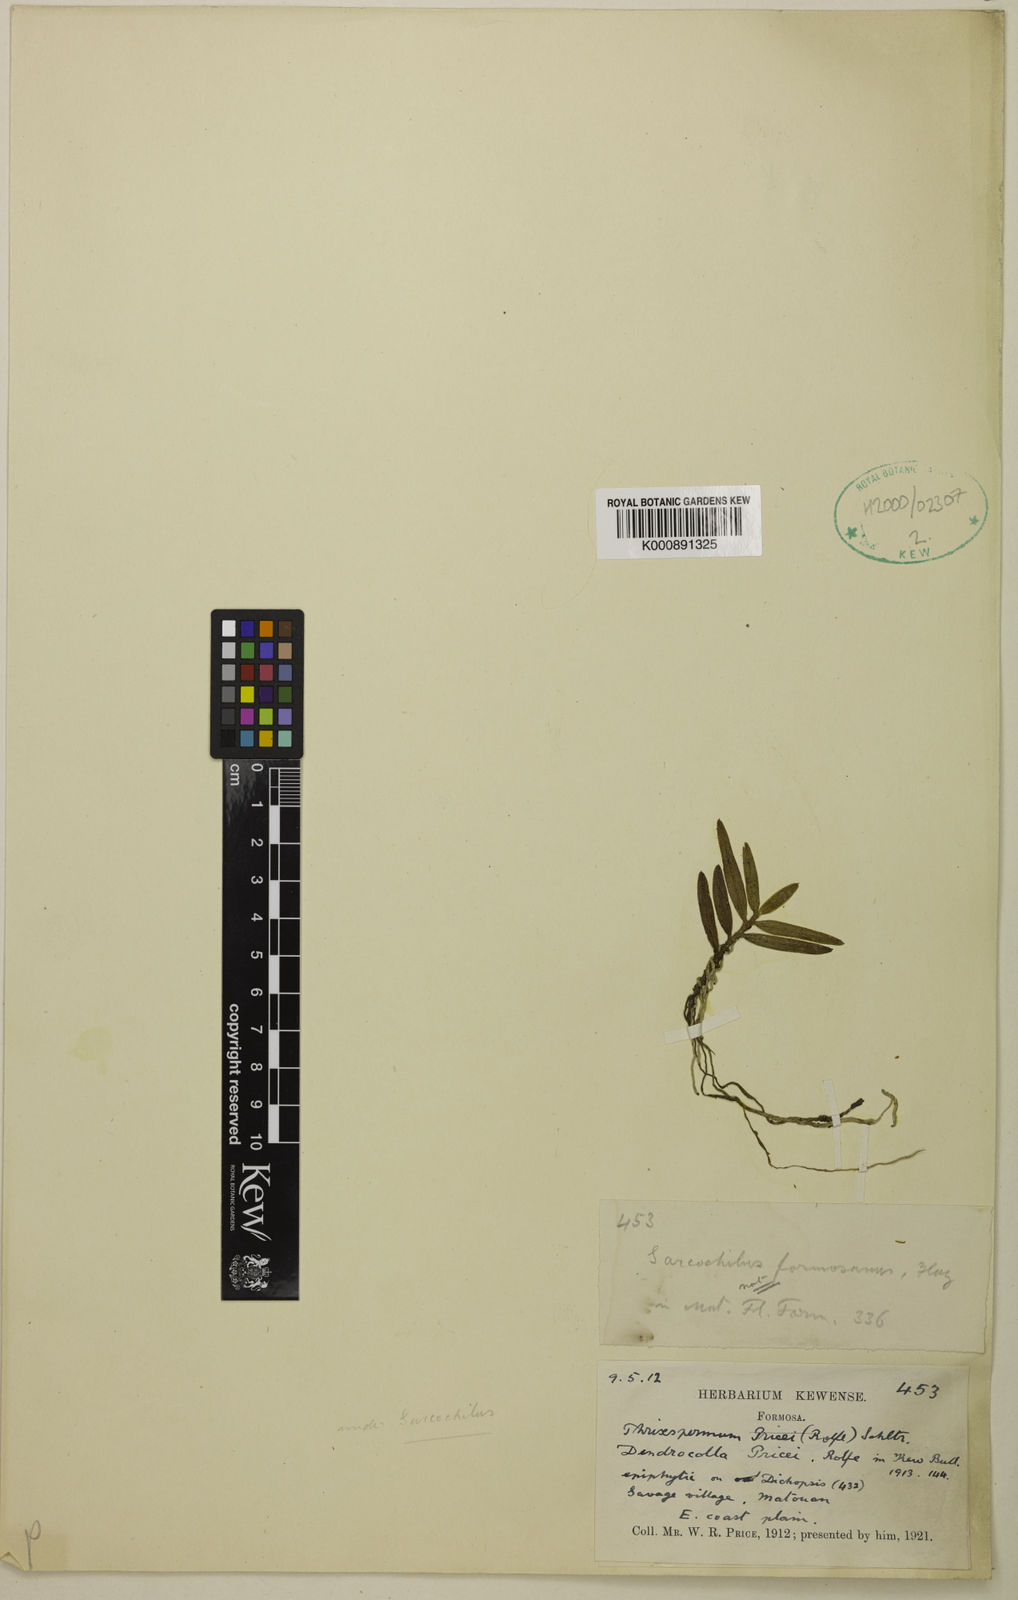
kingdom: Plantae
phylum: Tracheophyta
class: Liliopsida
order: Asparagales
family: Orchidaceae
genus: Thrixspermum
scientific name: Thrixspermum formosanum
